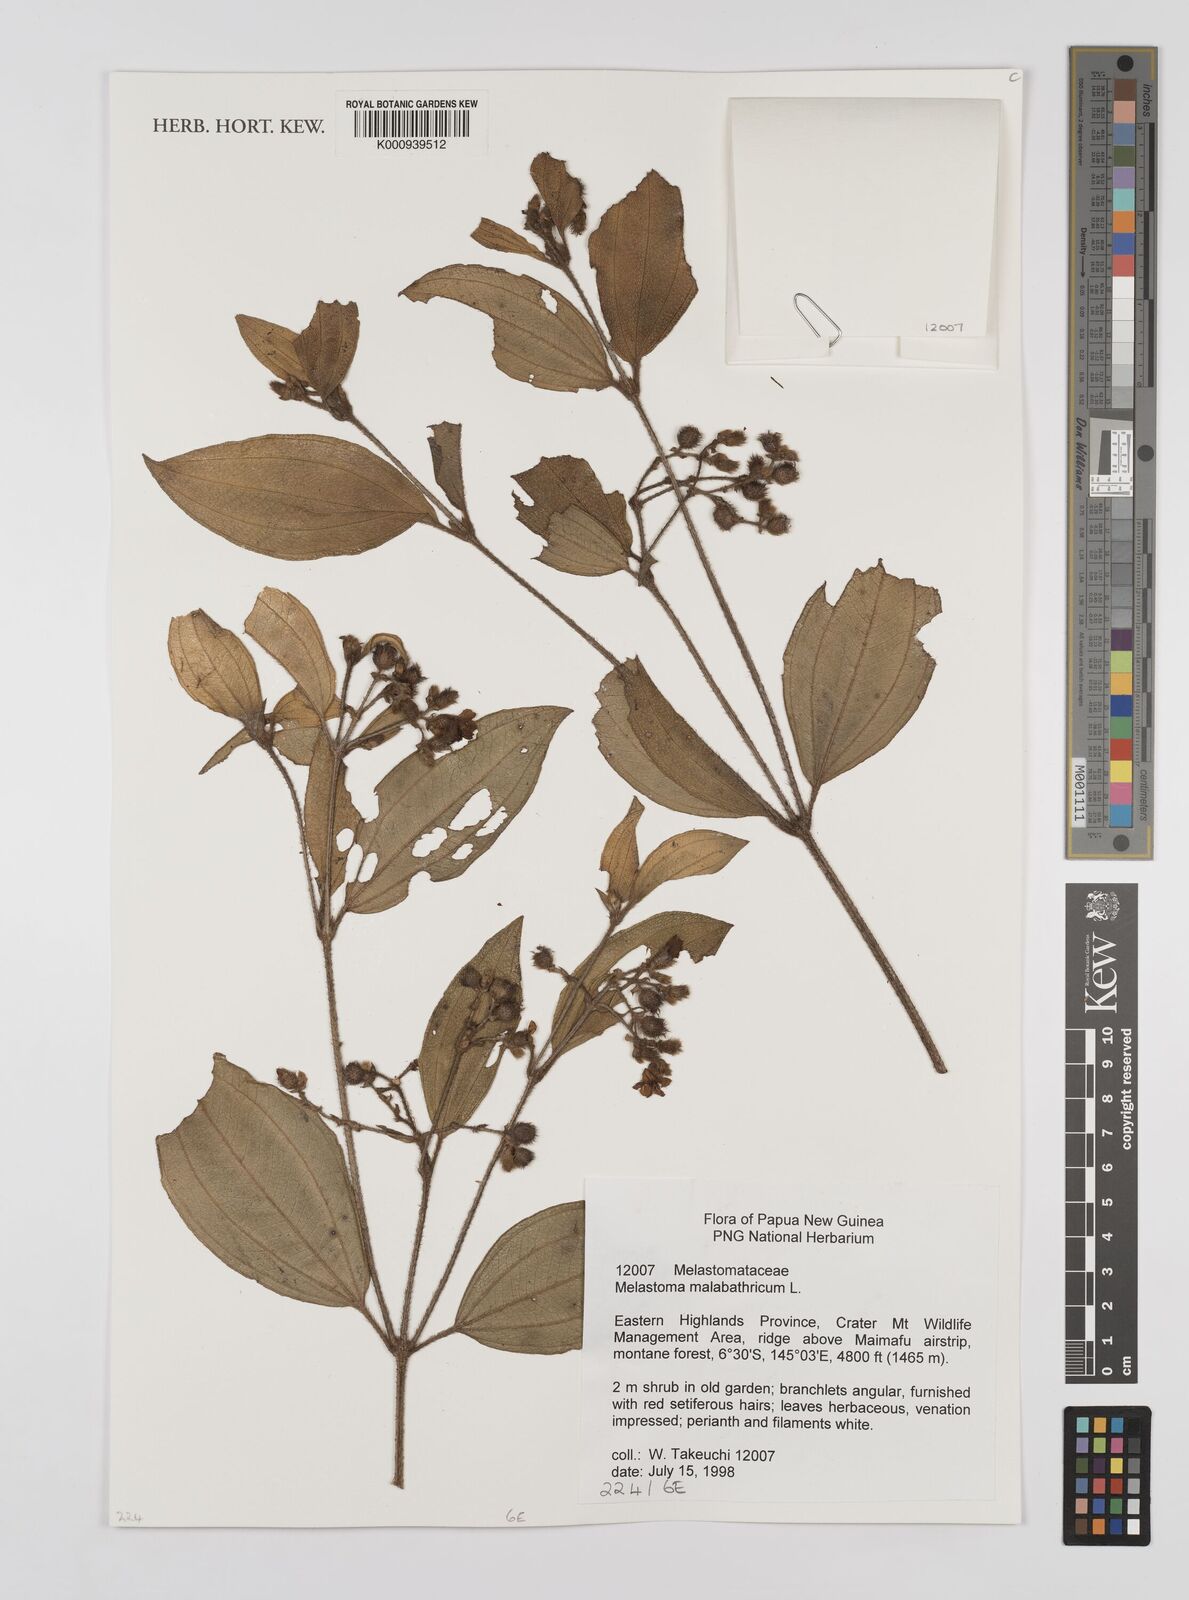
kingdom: Plantae
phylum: Tracheophyta
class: Magnoliopsida
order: Myrtales
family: Melastomataceae
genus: Melastoma
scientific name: Melastoma malabathricum
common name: Indian-rhododendron
